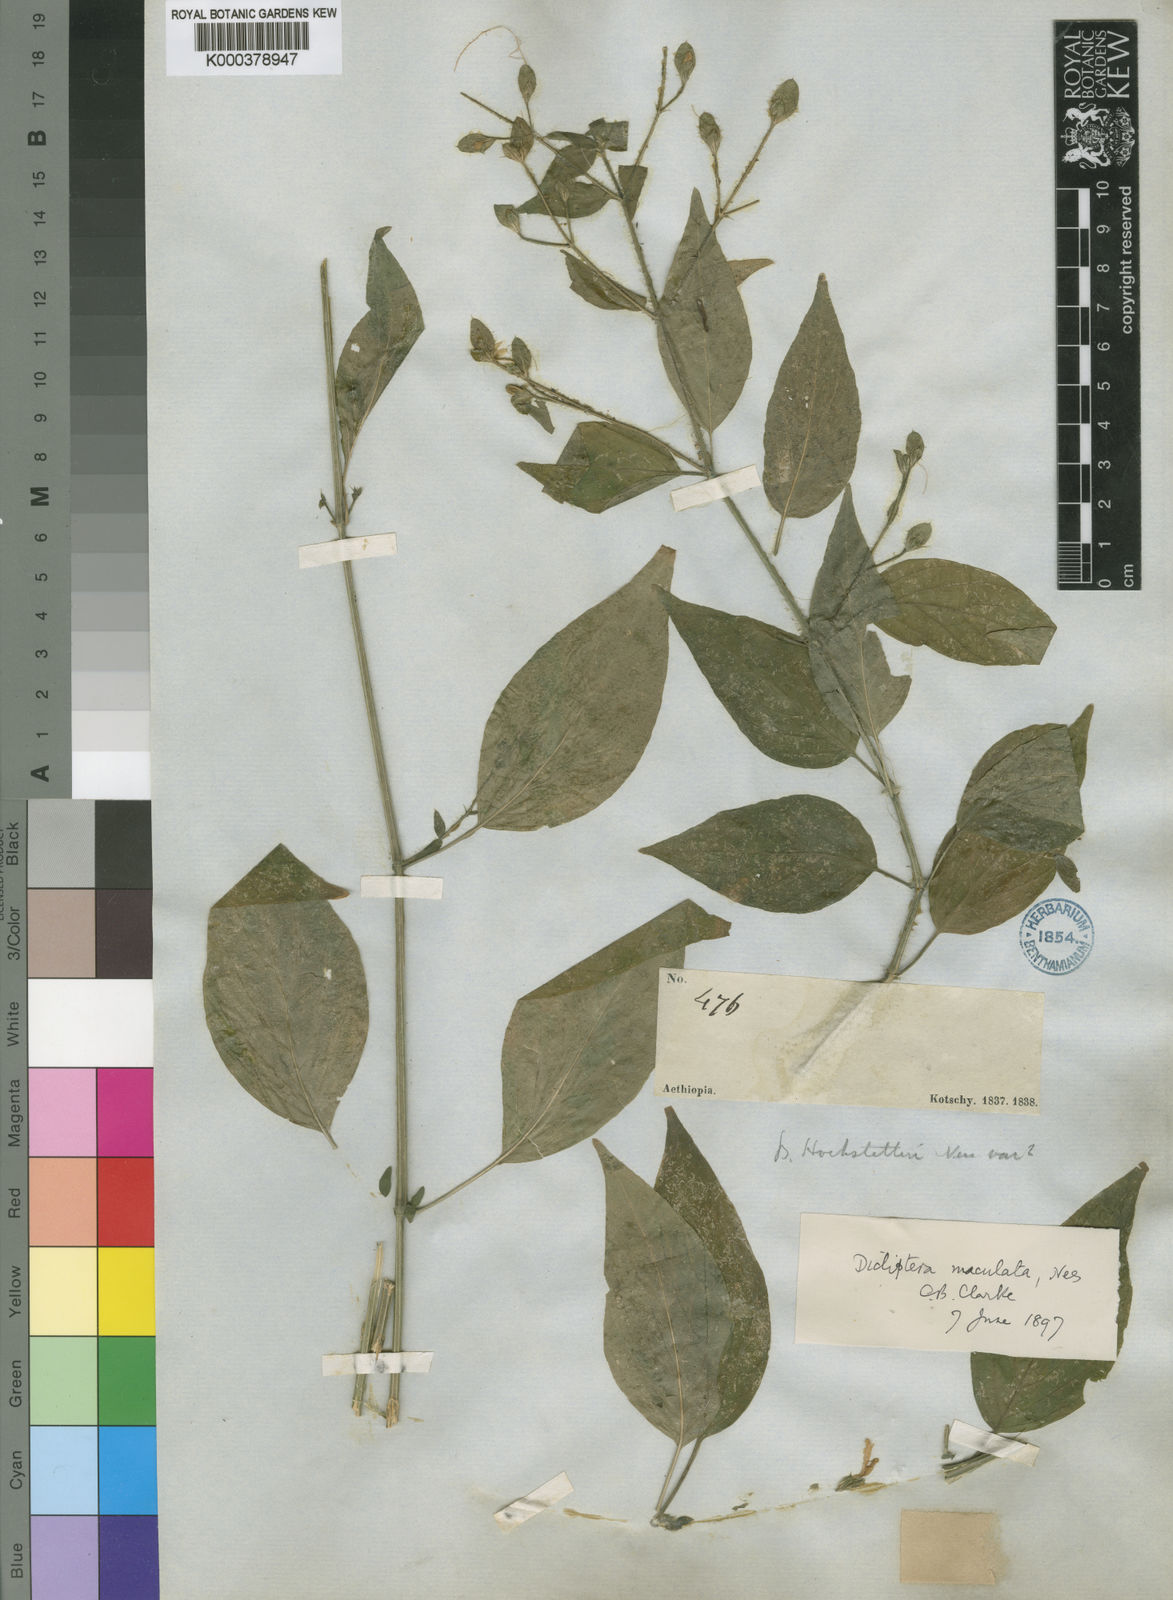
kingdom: Plantae
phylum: Tracheophyta
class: Magnoliopsida
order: Lamiales
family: Acanthaceae
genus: Dicliptera
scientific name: Dicliptera maculata
